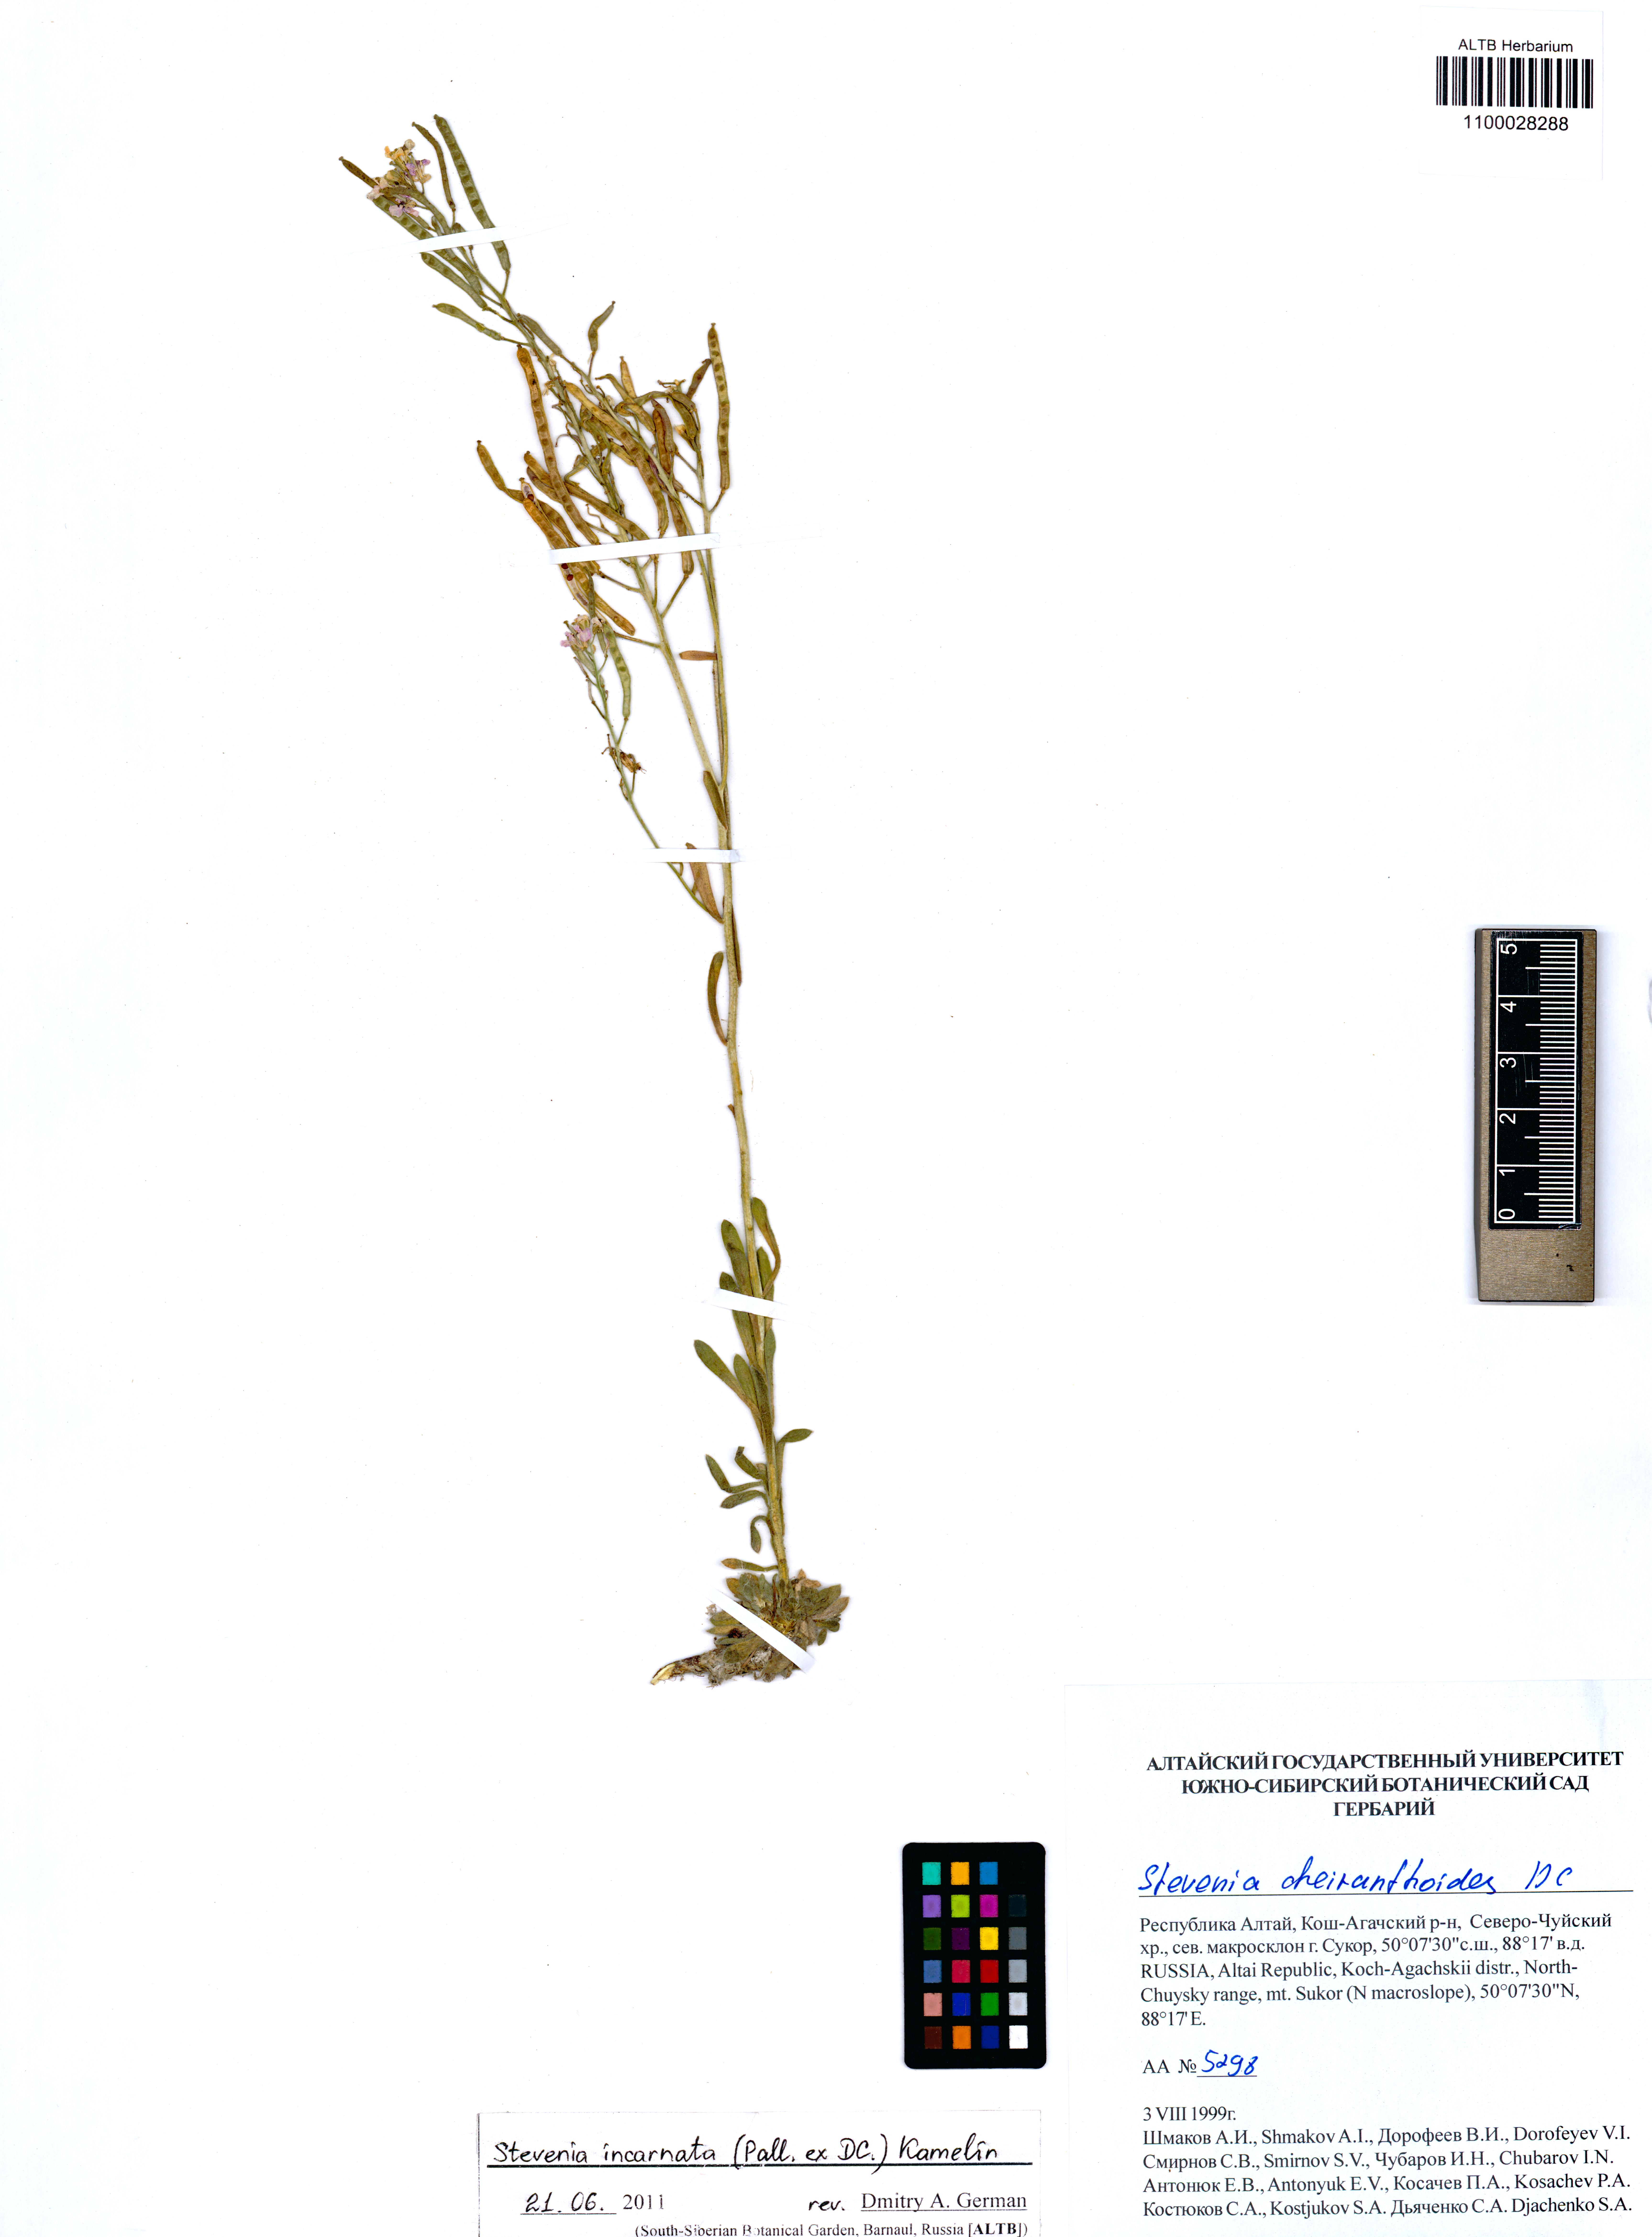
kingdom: Plantae
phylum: Tracheophyta
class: Magnoliopsida
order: Brassicales
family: Brassicaceae
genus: Stevenia
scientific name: Stevenia incarnata
